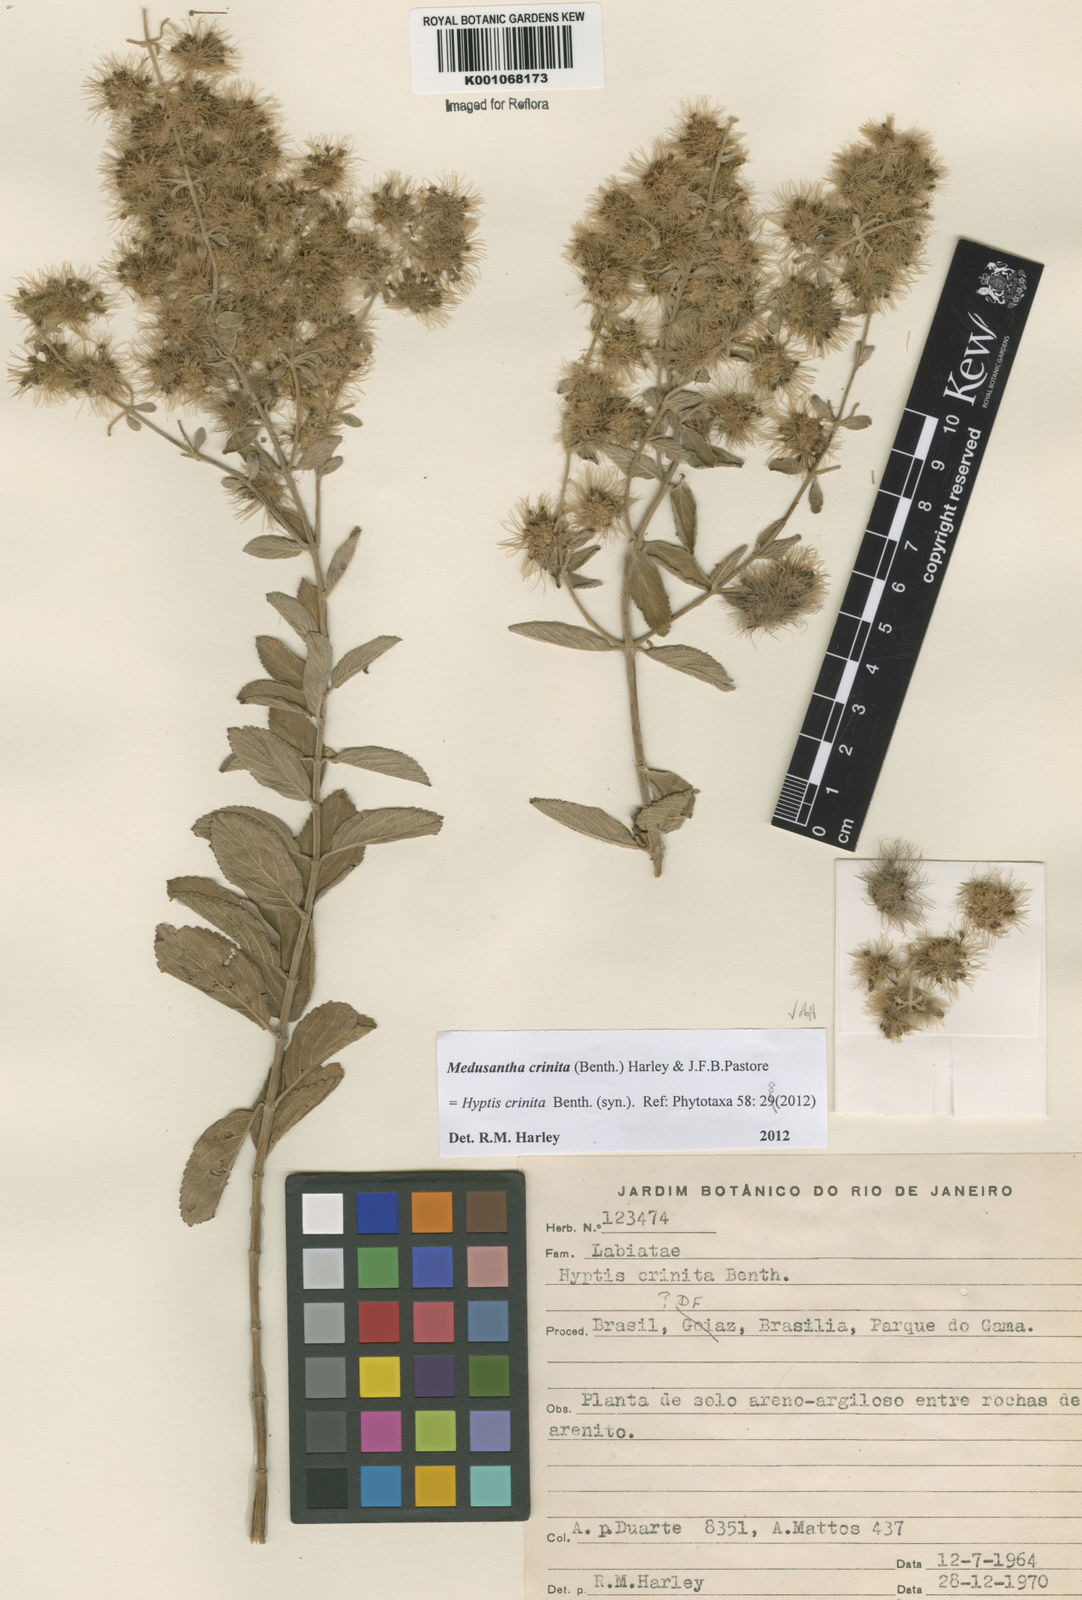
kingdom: Plantae
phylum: Tracheophyta
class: Magnoliopsida
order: Lamiales
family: Lamiaceae
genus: Medusantha
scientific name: Medusantha crinita
